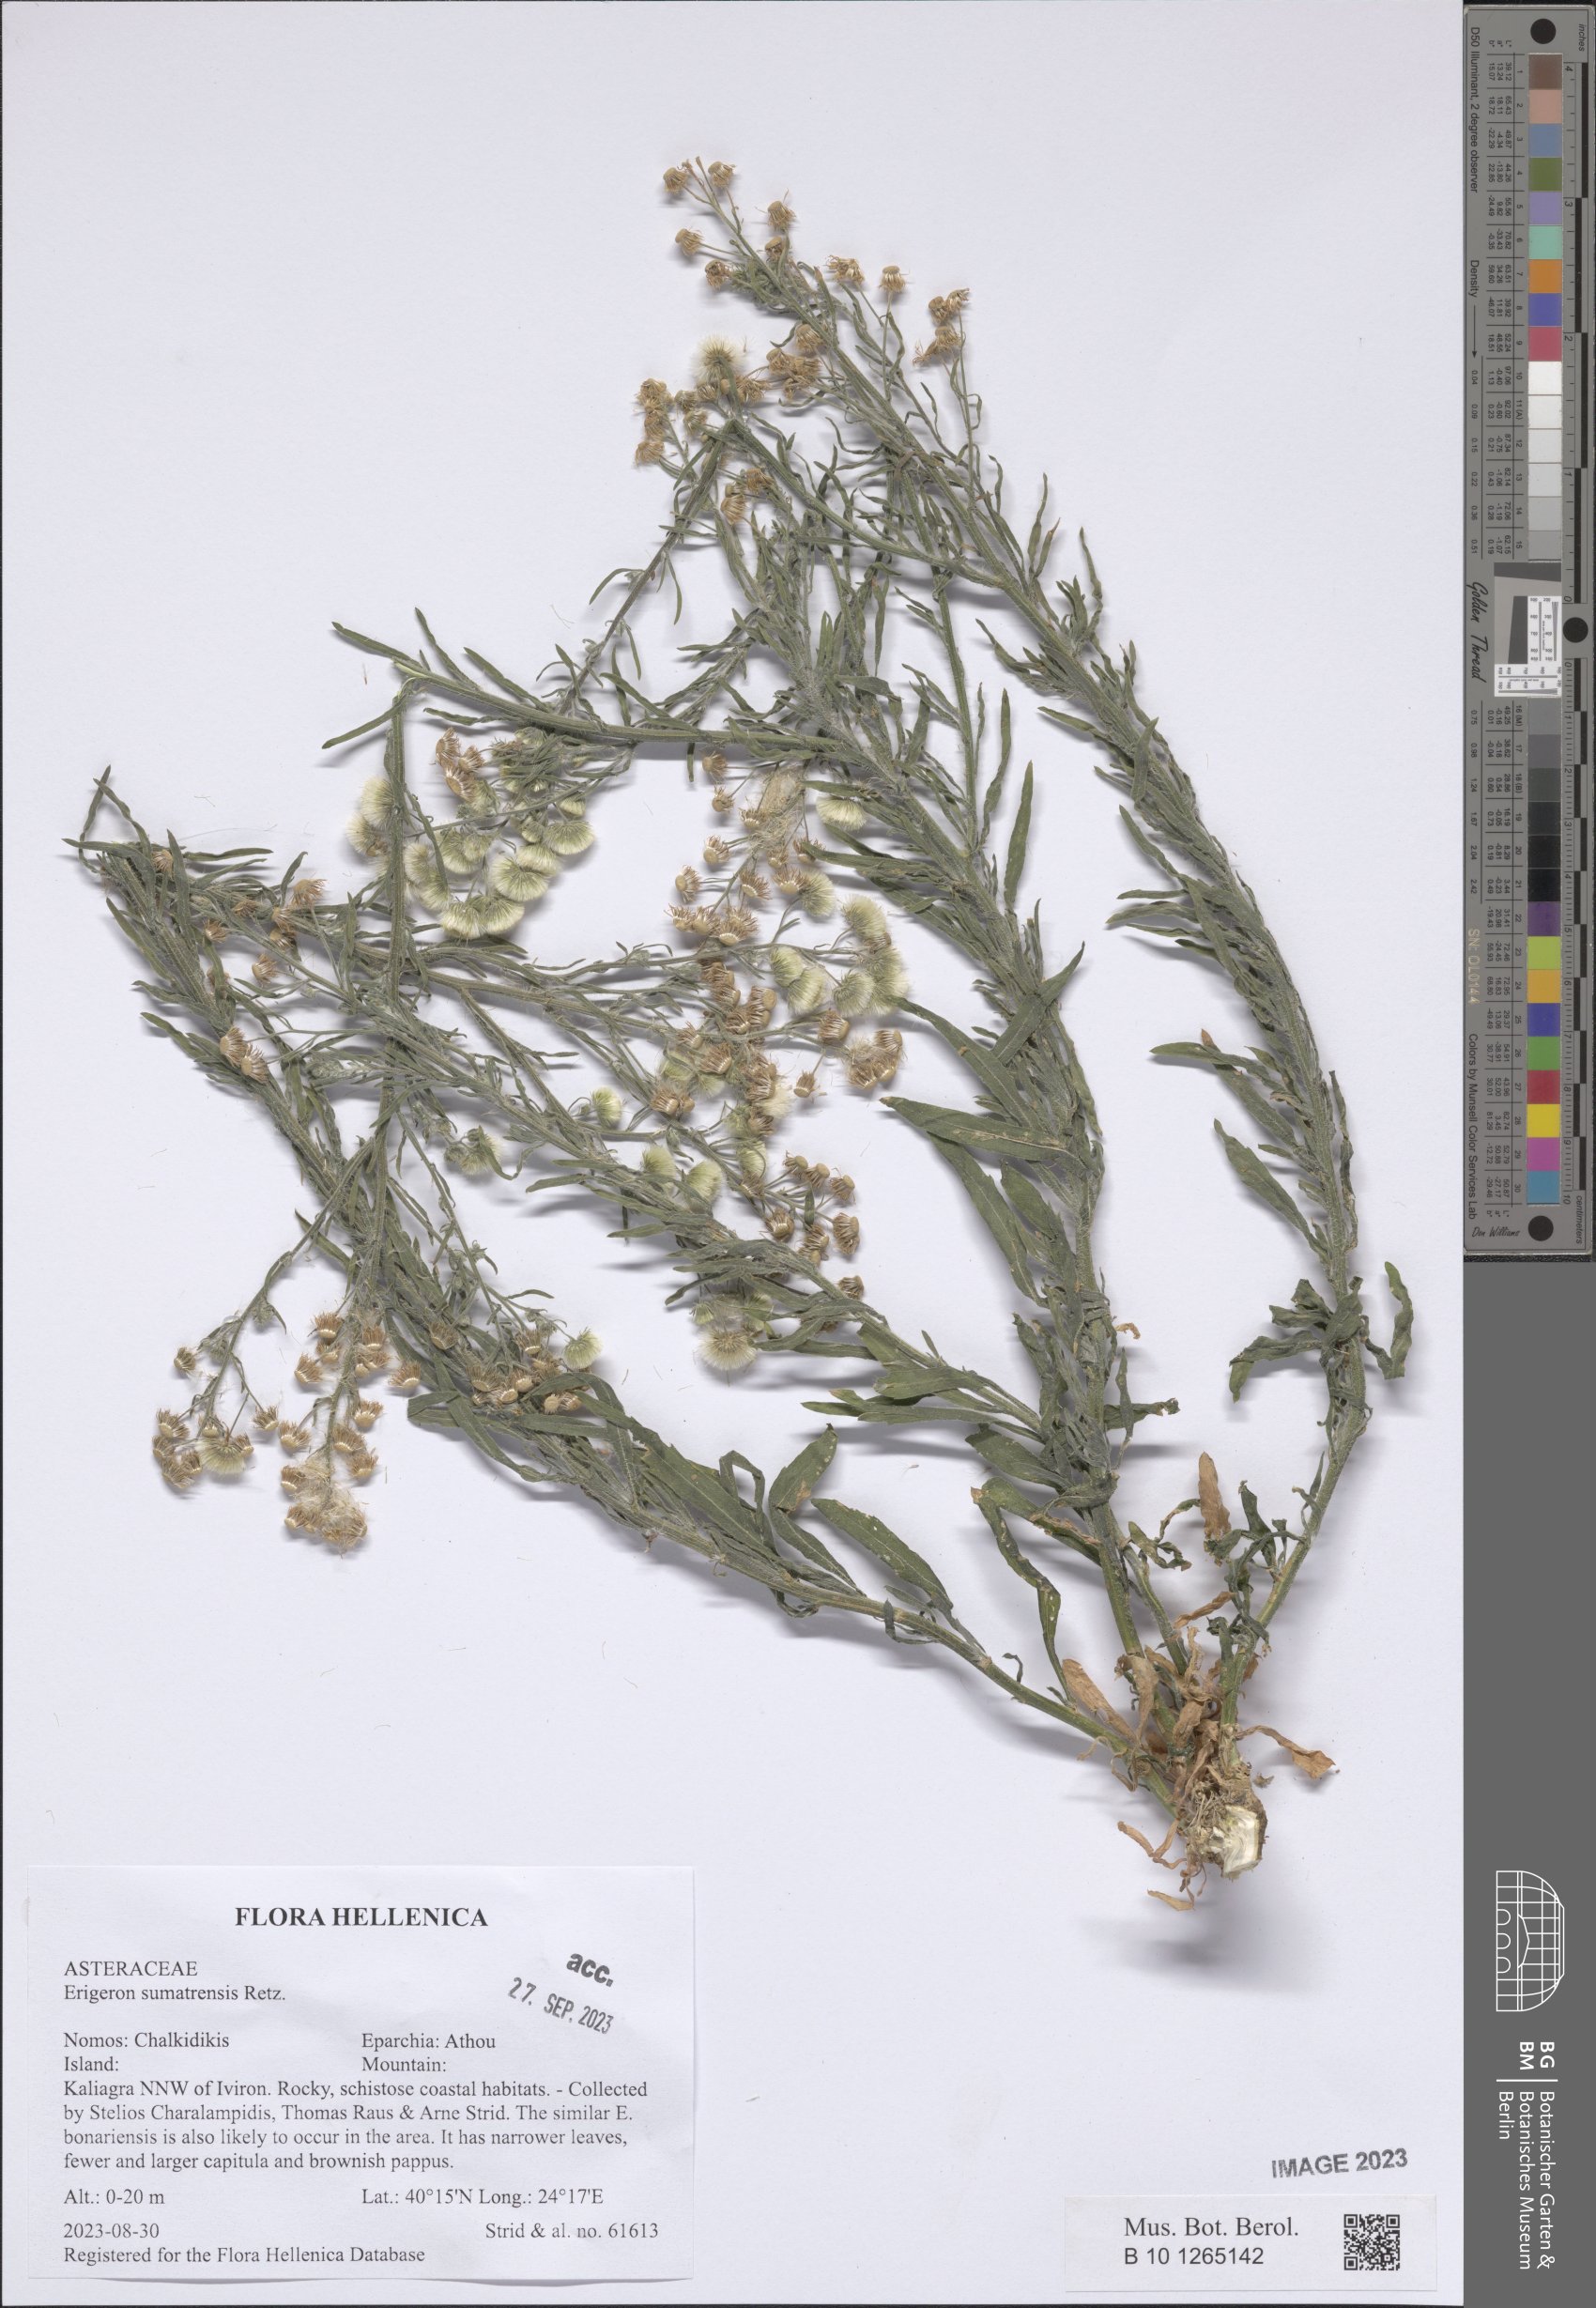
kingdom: Plantae
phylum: Tracheophyta
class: Magnoliopsida
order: Asterales
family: Asteraceae
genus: Erigeron
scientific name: Erigeron sumatrensis
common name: Daisy
